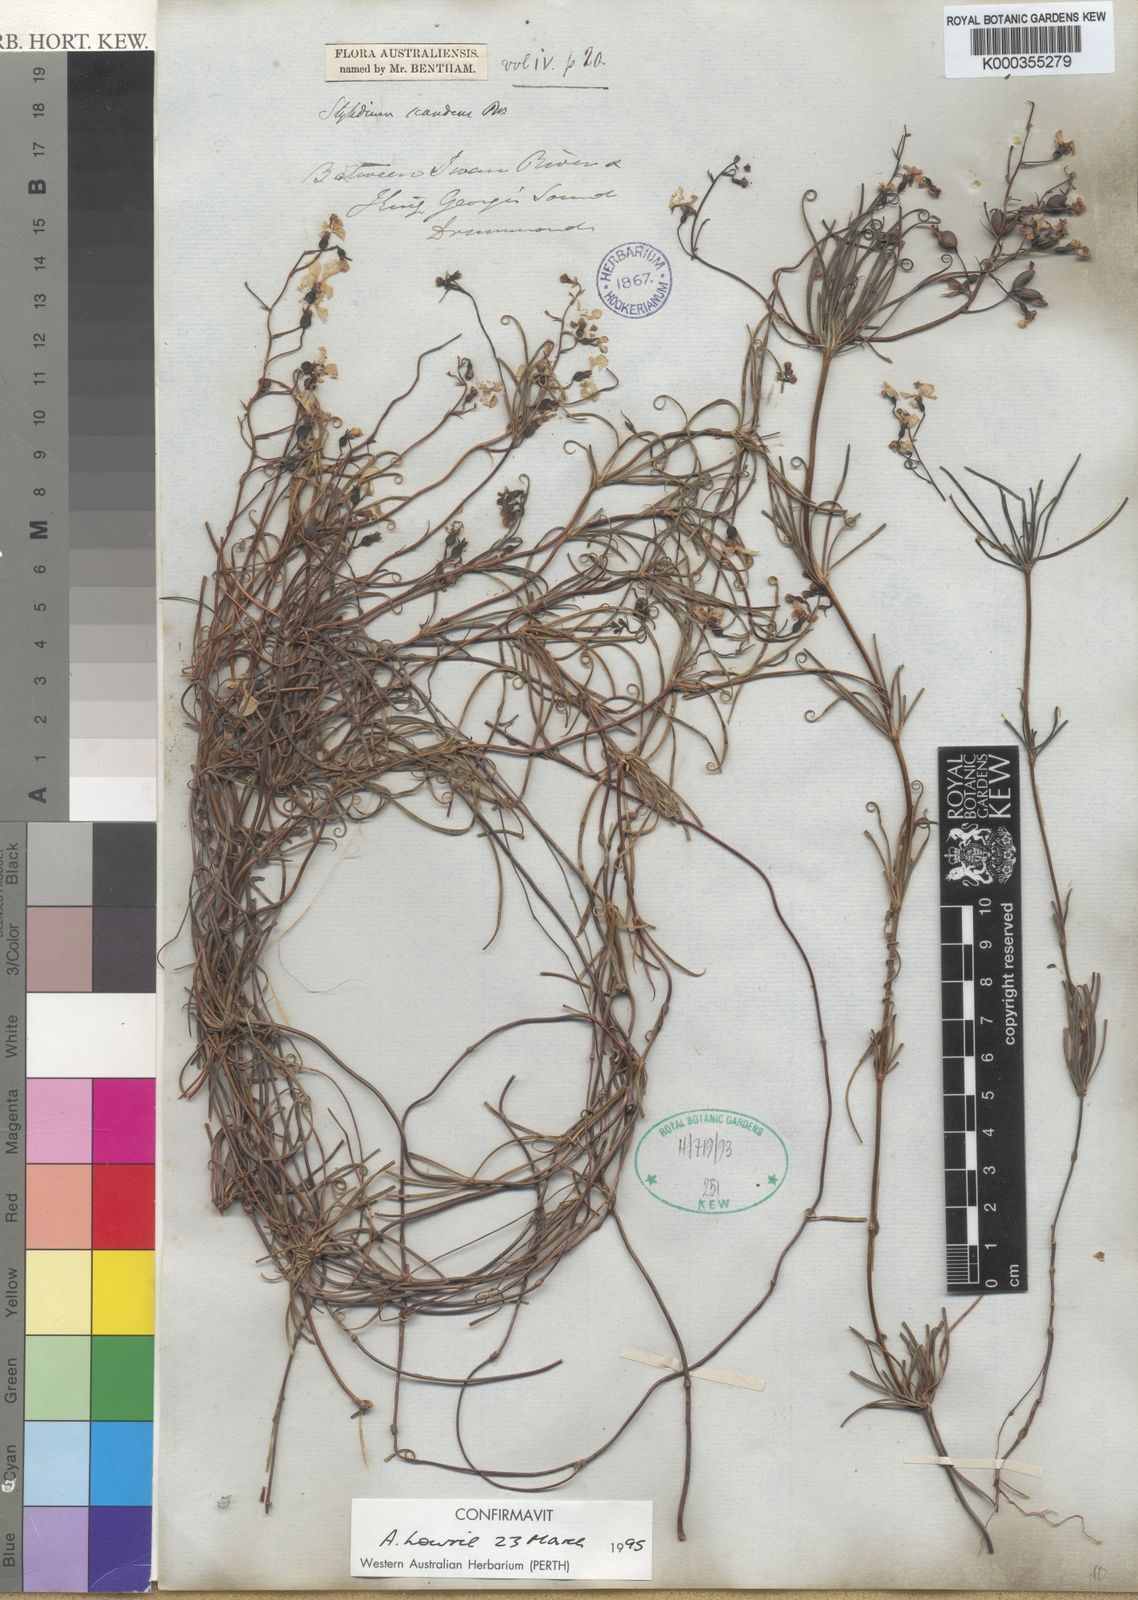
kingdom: Plantae
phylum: Tracheophyta
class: Magnoliopsida
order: Asterales
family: Stylidiaceae
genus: Stylidium
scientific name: Stylidium scandens
